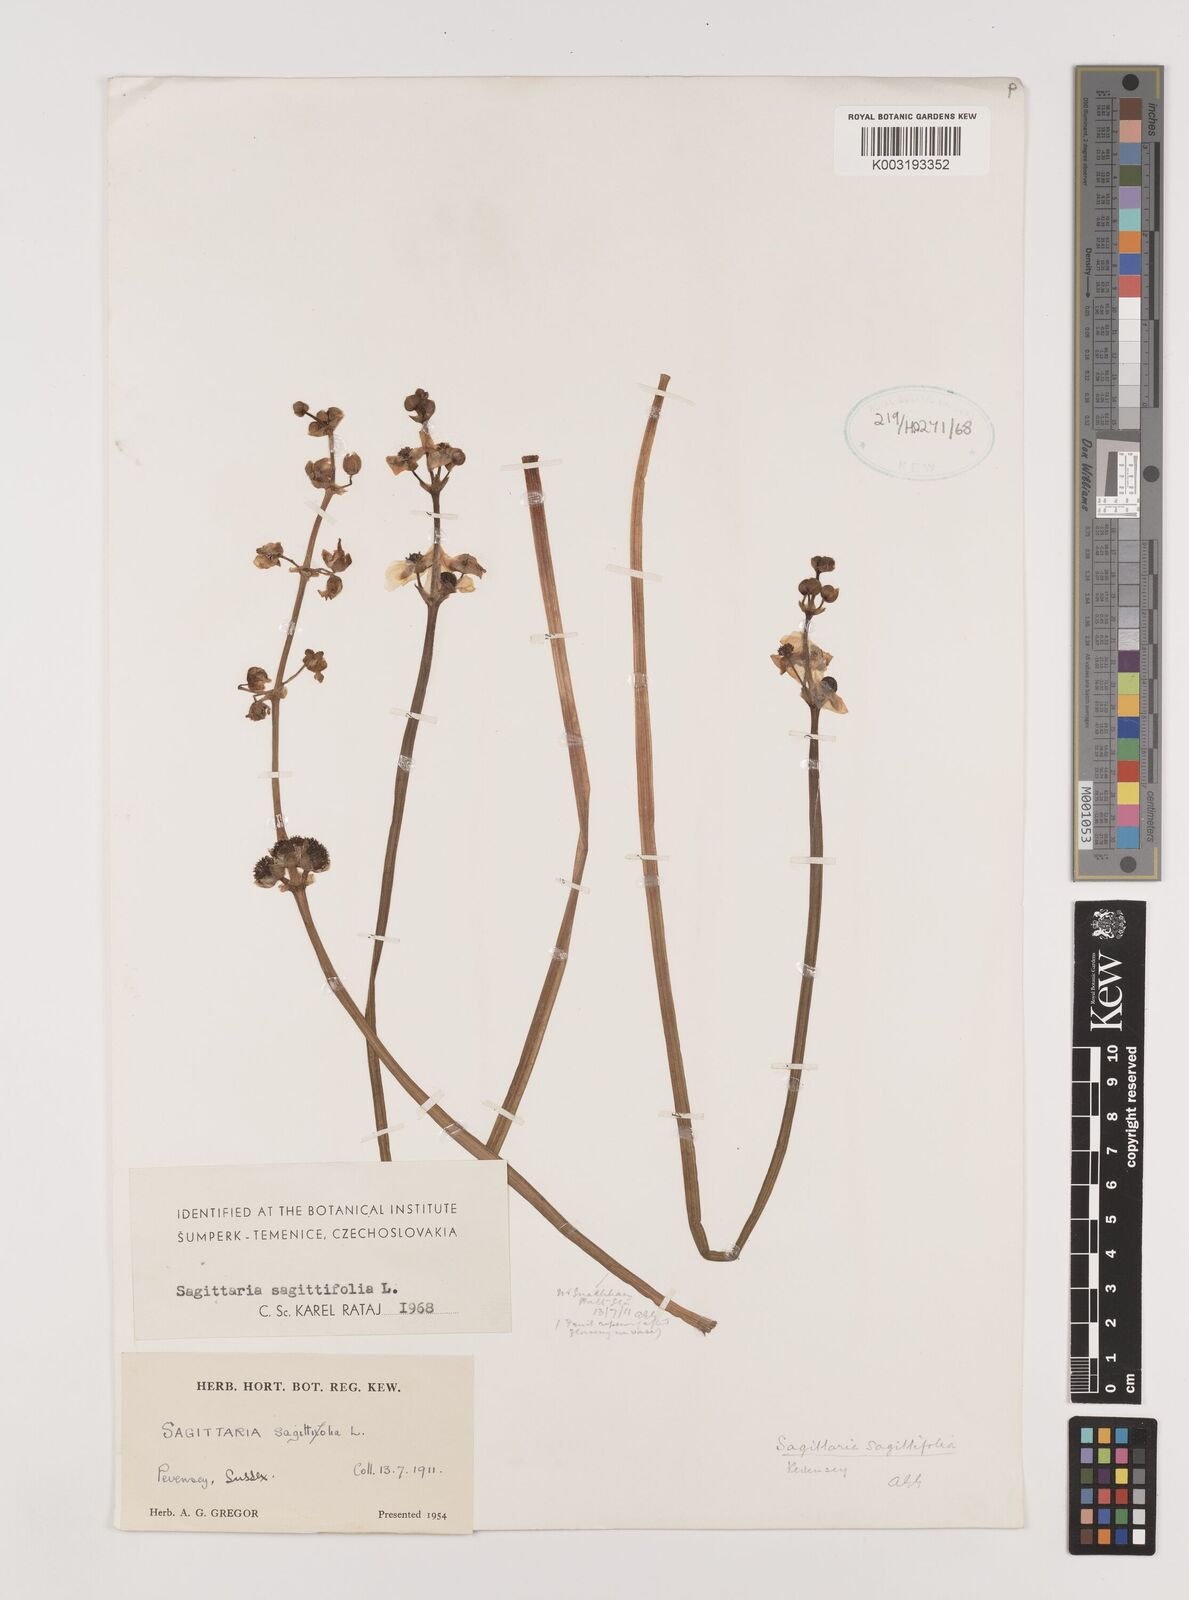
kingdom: Plantae
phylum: Tracheophyta
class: Liliopsida
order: Alismatales
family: Alismataceae
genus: Sagittaria
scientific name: Sagittaria sagittifolia
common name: Arrowhead
